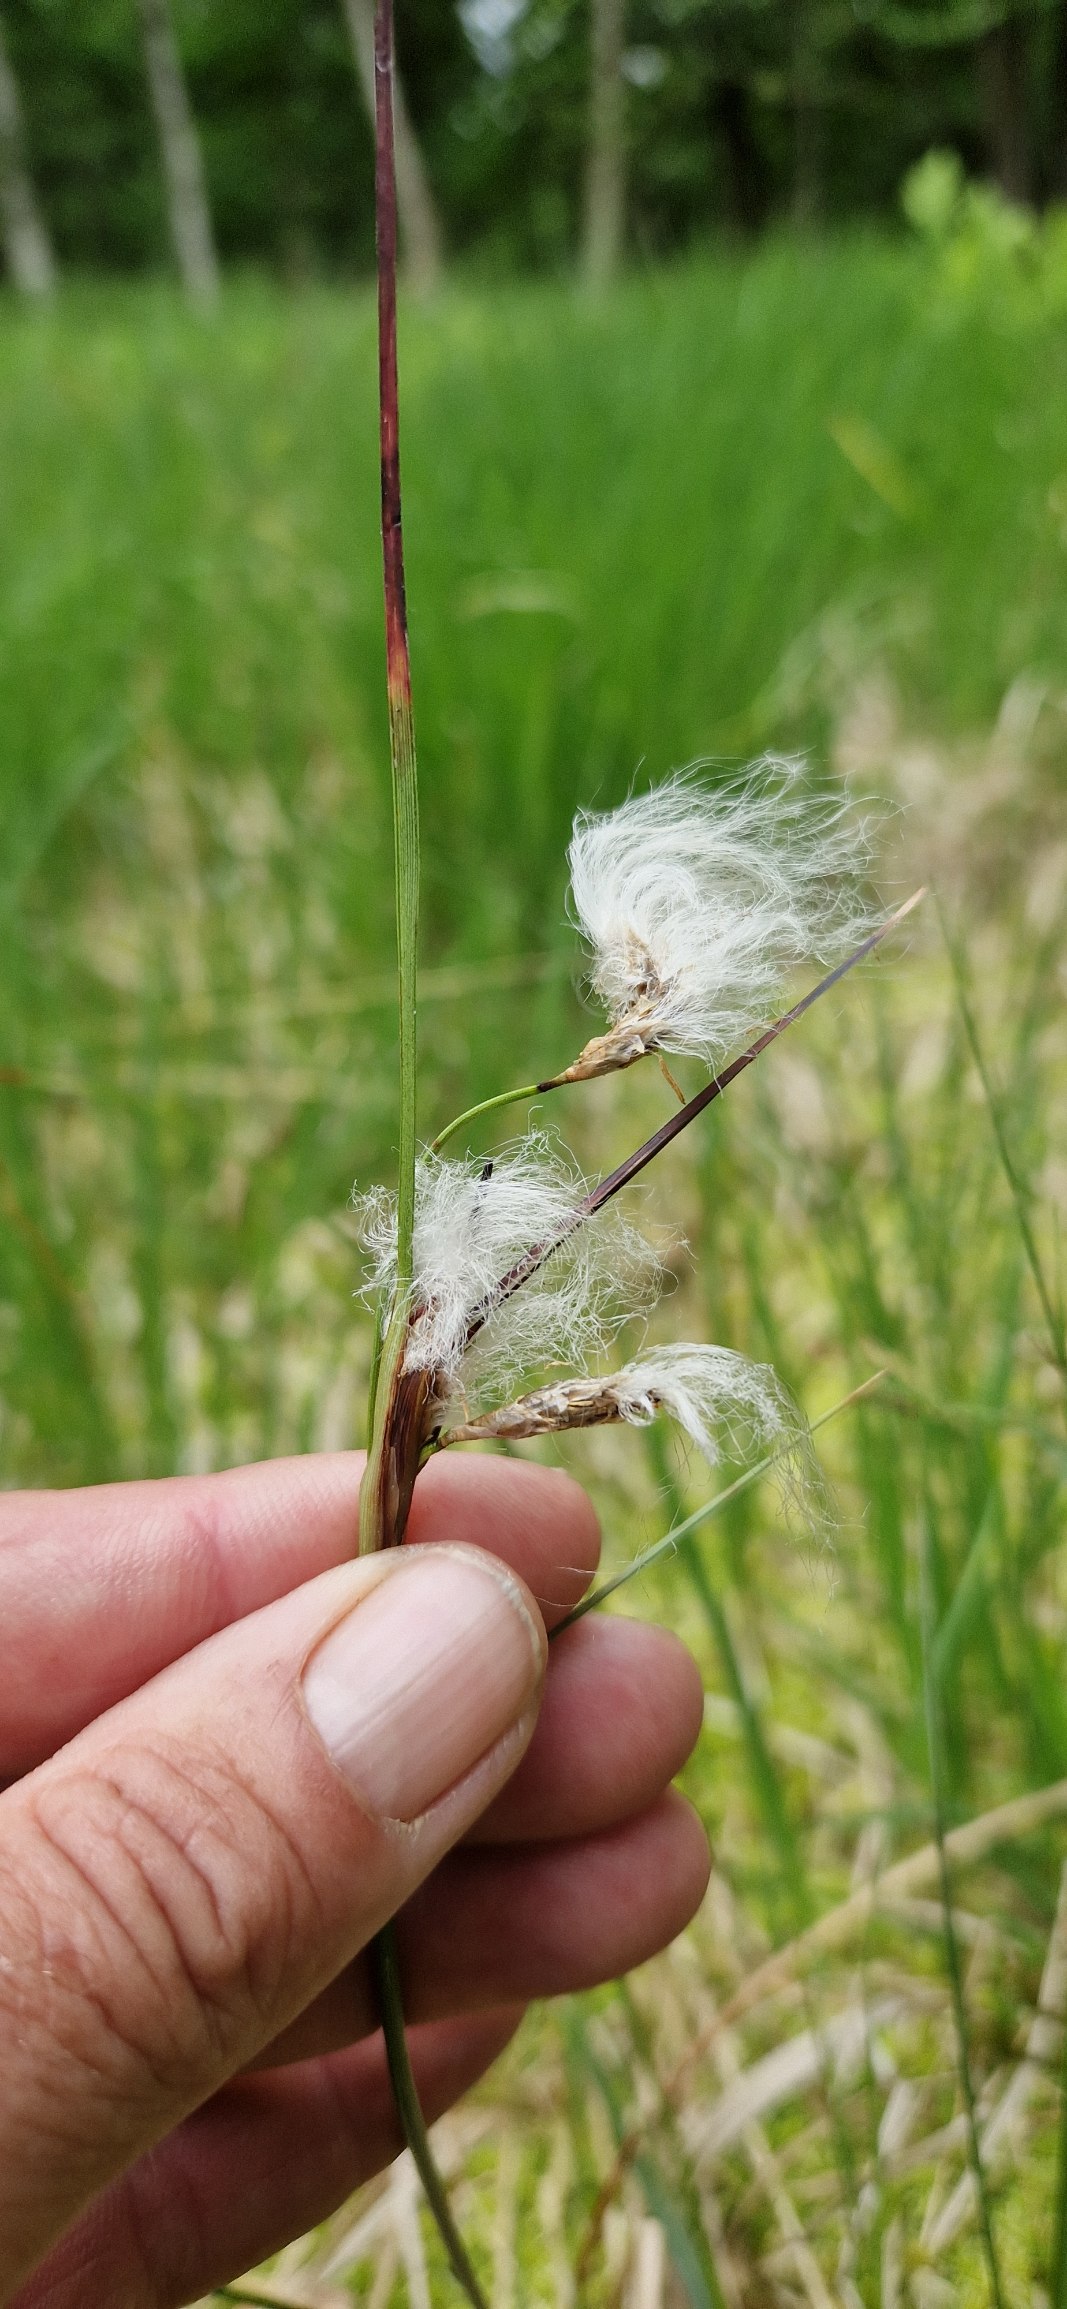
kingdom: Plantae
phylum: Tracheophyta
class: Liliopsida
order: Poales
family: Cyperaceae
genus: Eriophorum
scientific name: Eriophorum angustifolium
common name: Smalbladet kæruld
